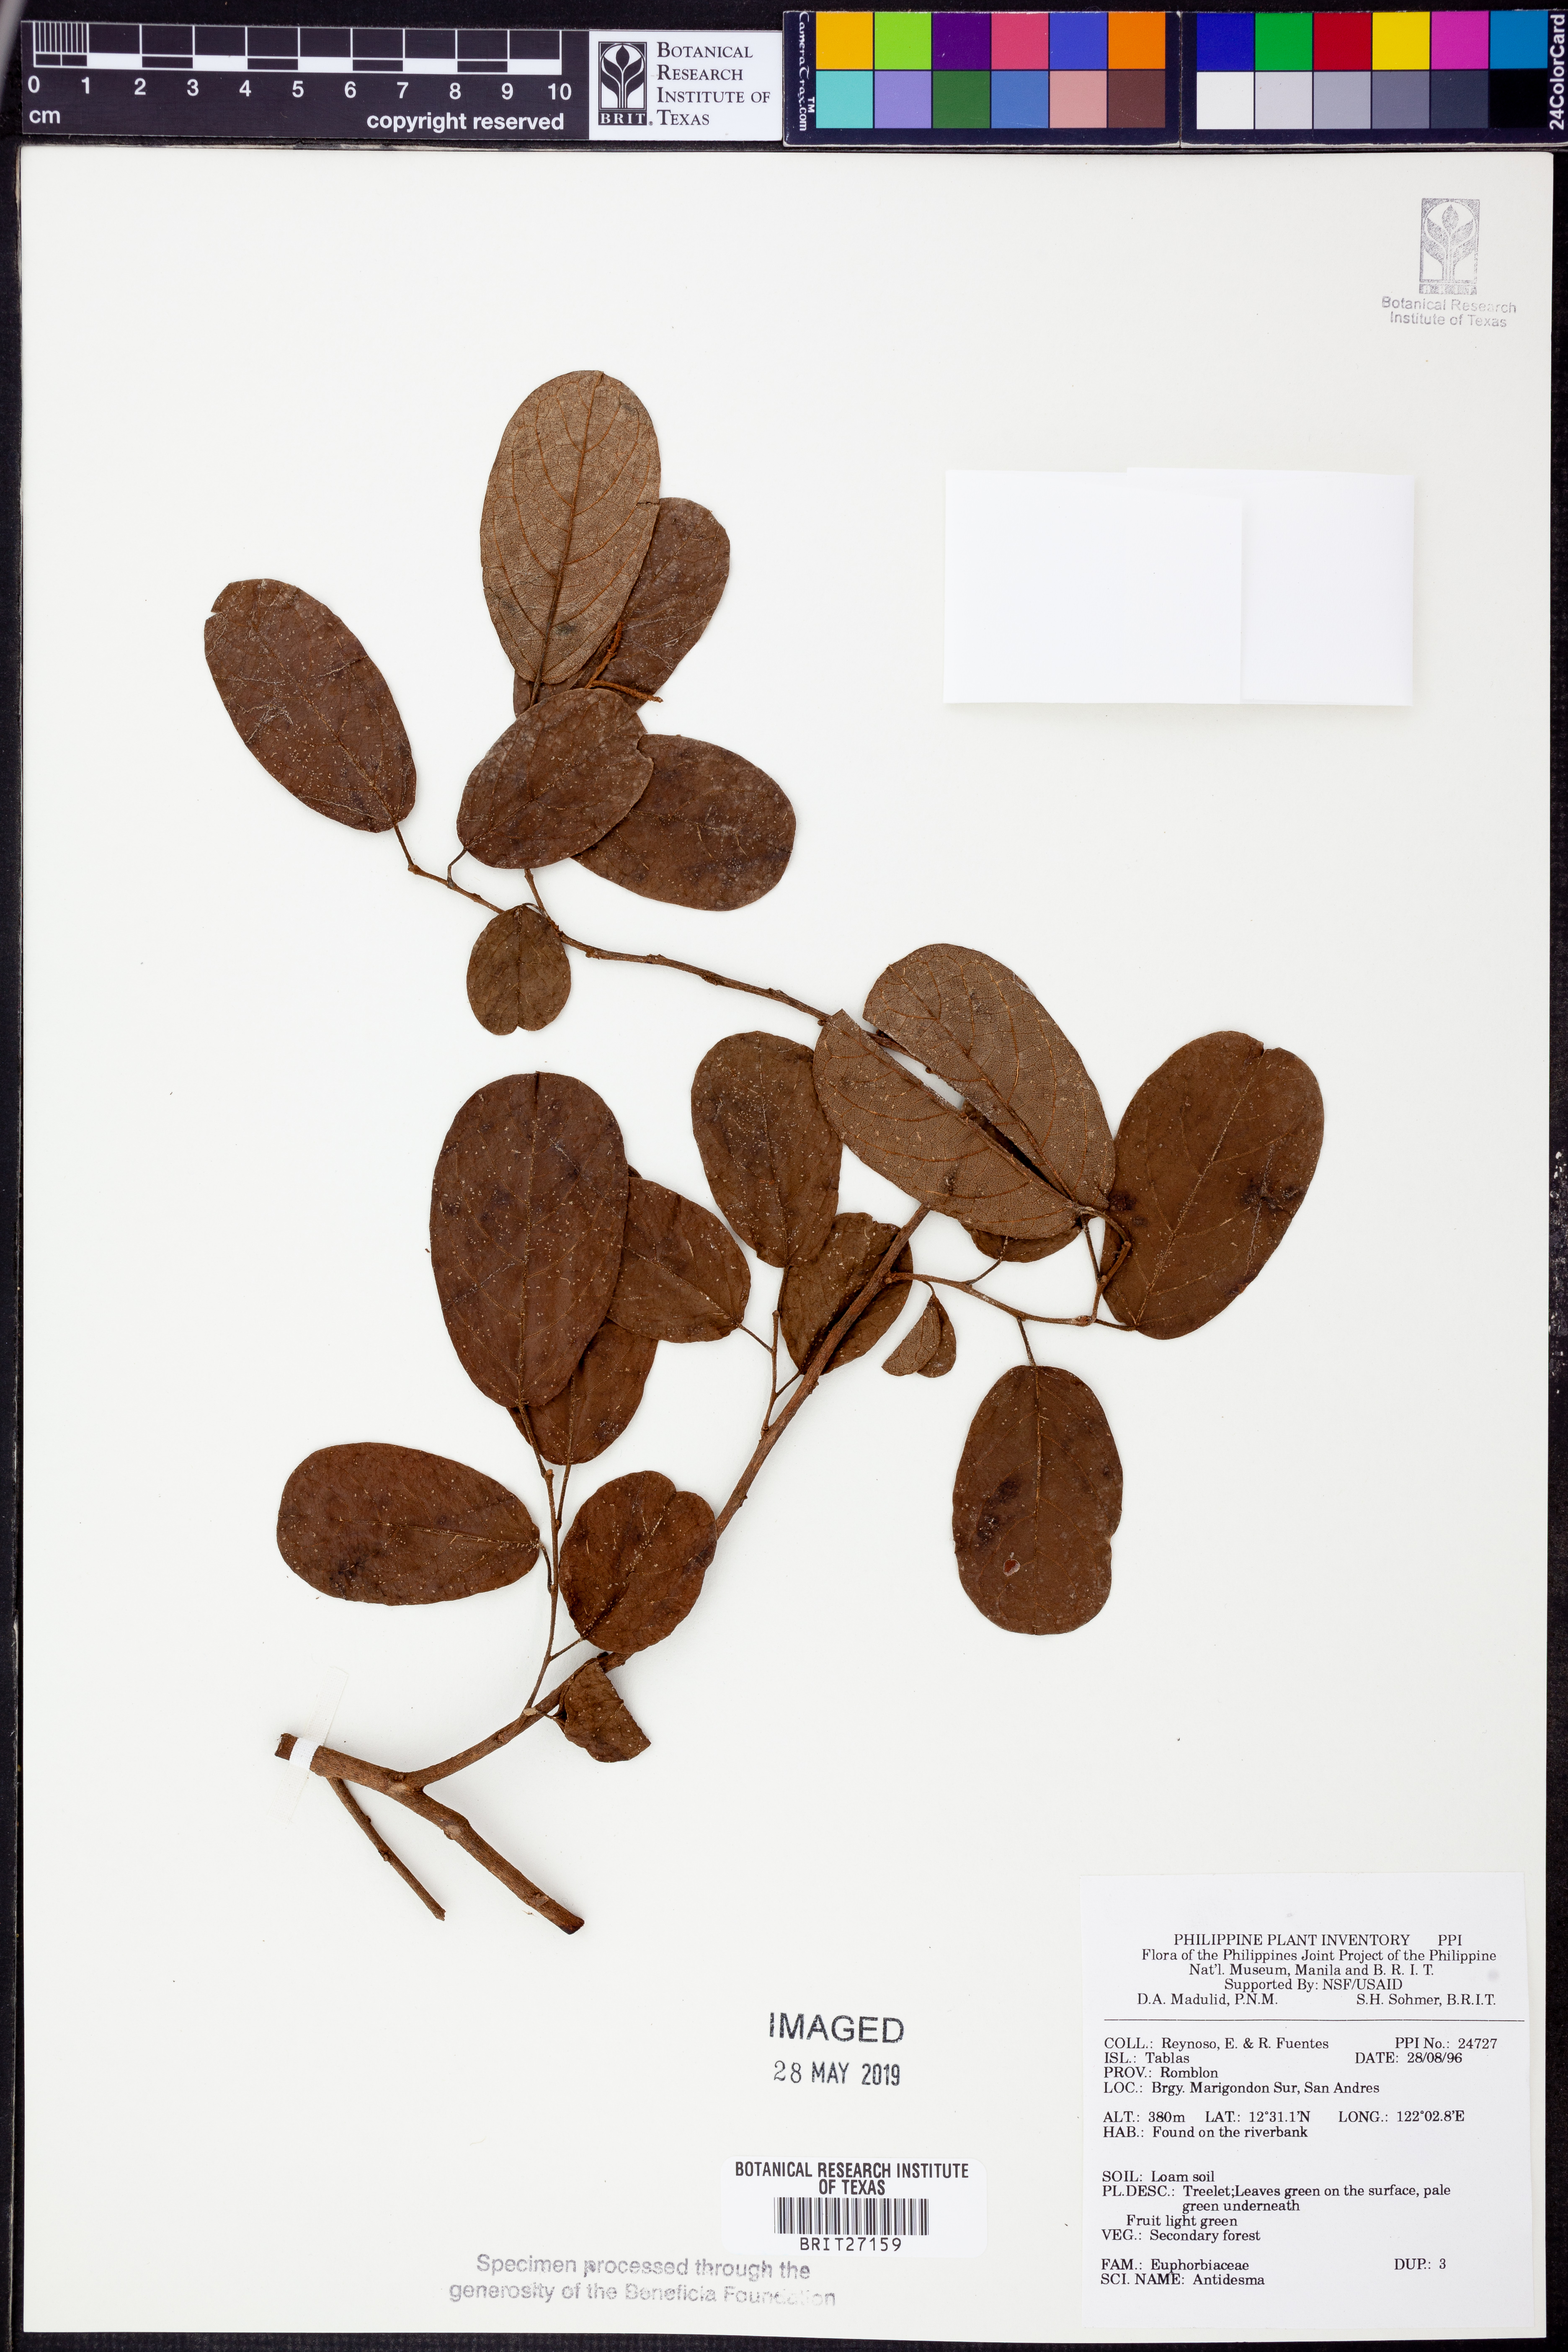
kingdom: Plantae
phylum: Tracheophyta
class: Magnoliopsida
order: Malpighiales
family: Phyllanthaceae
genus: Antidesma
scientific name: Antidesma
